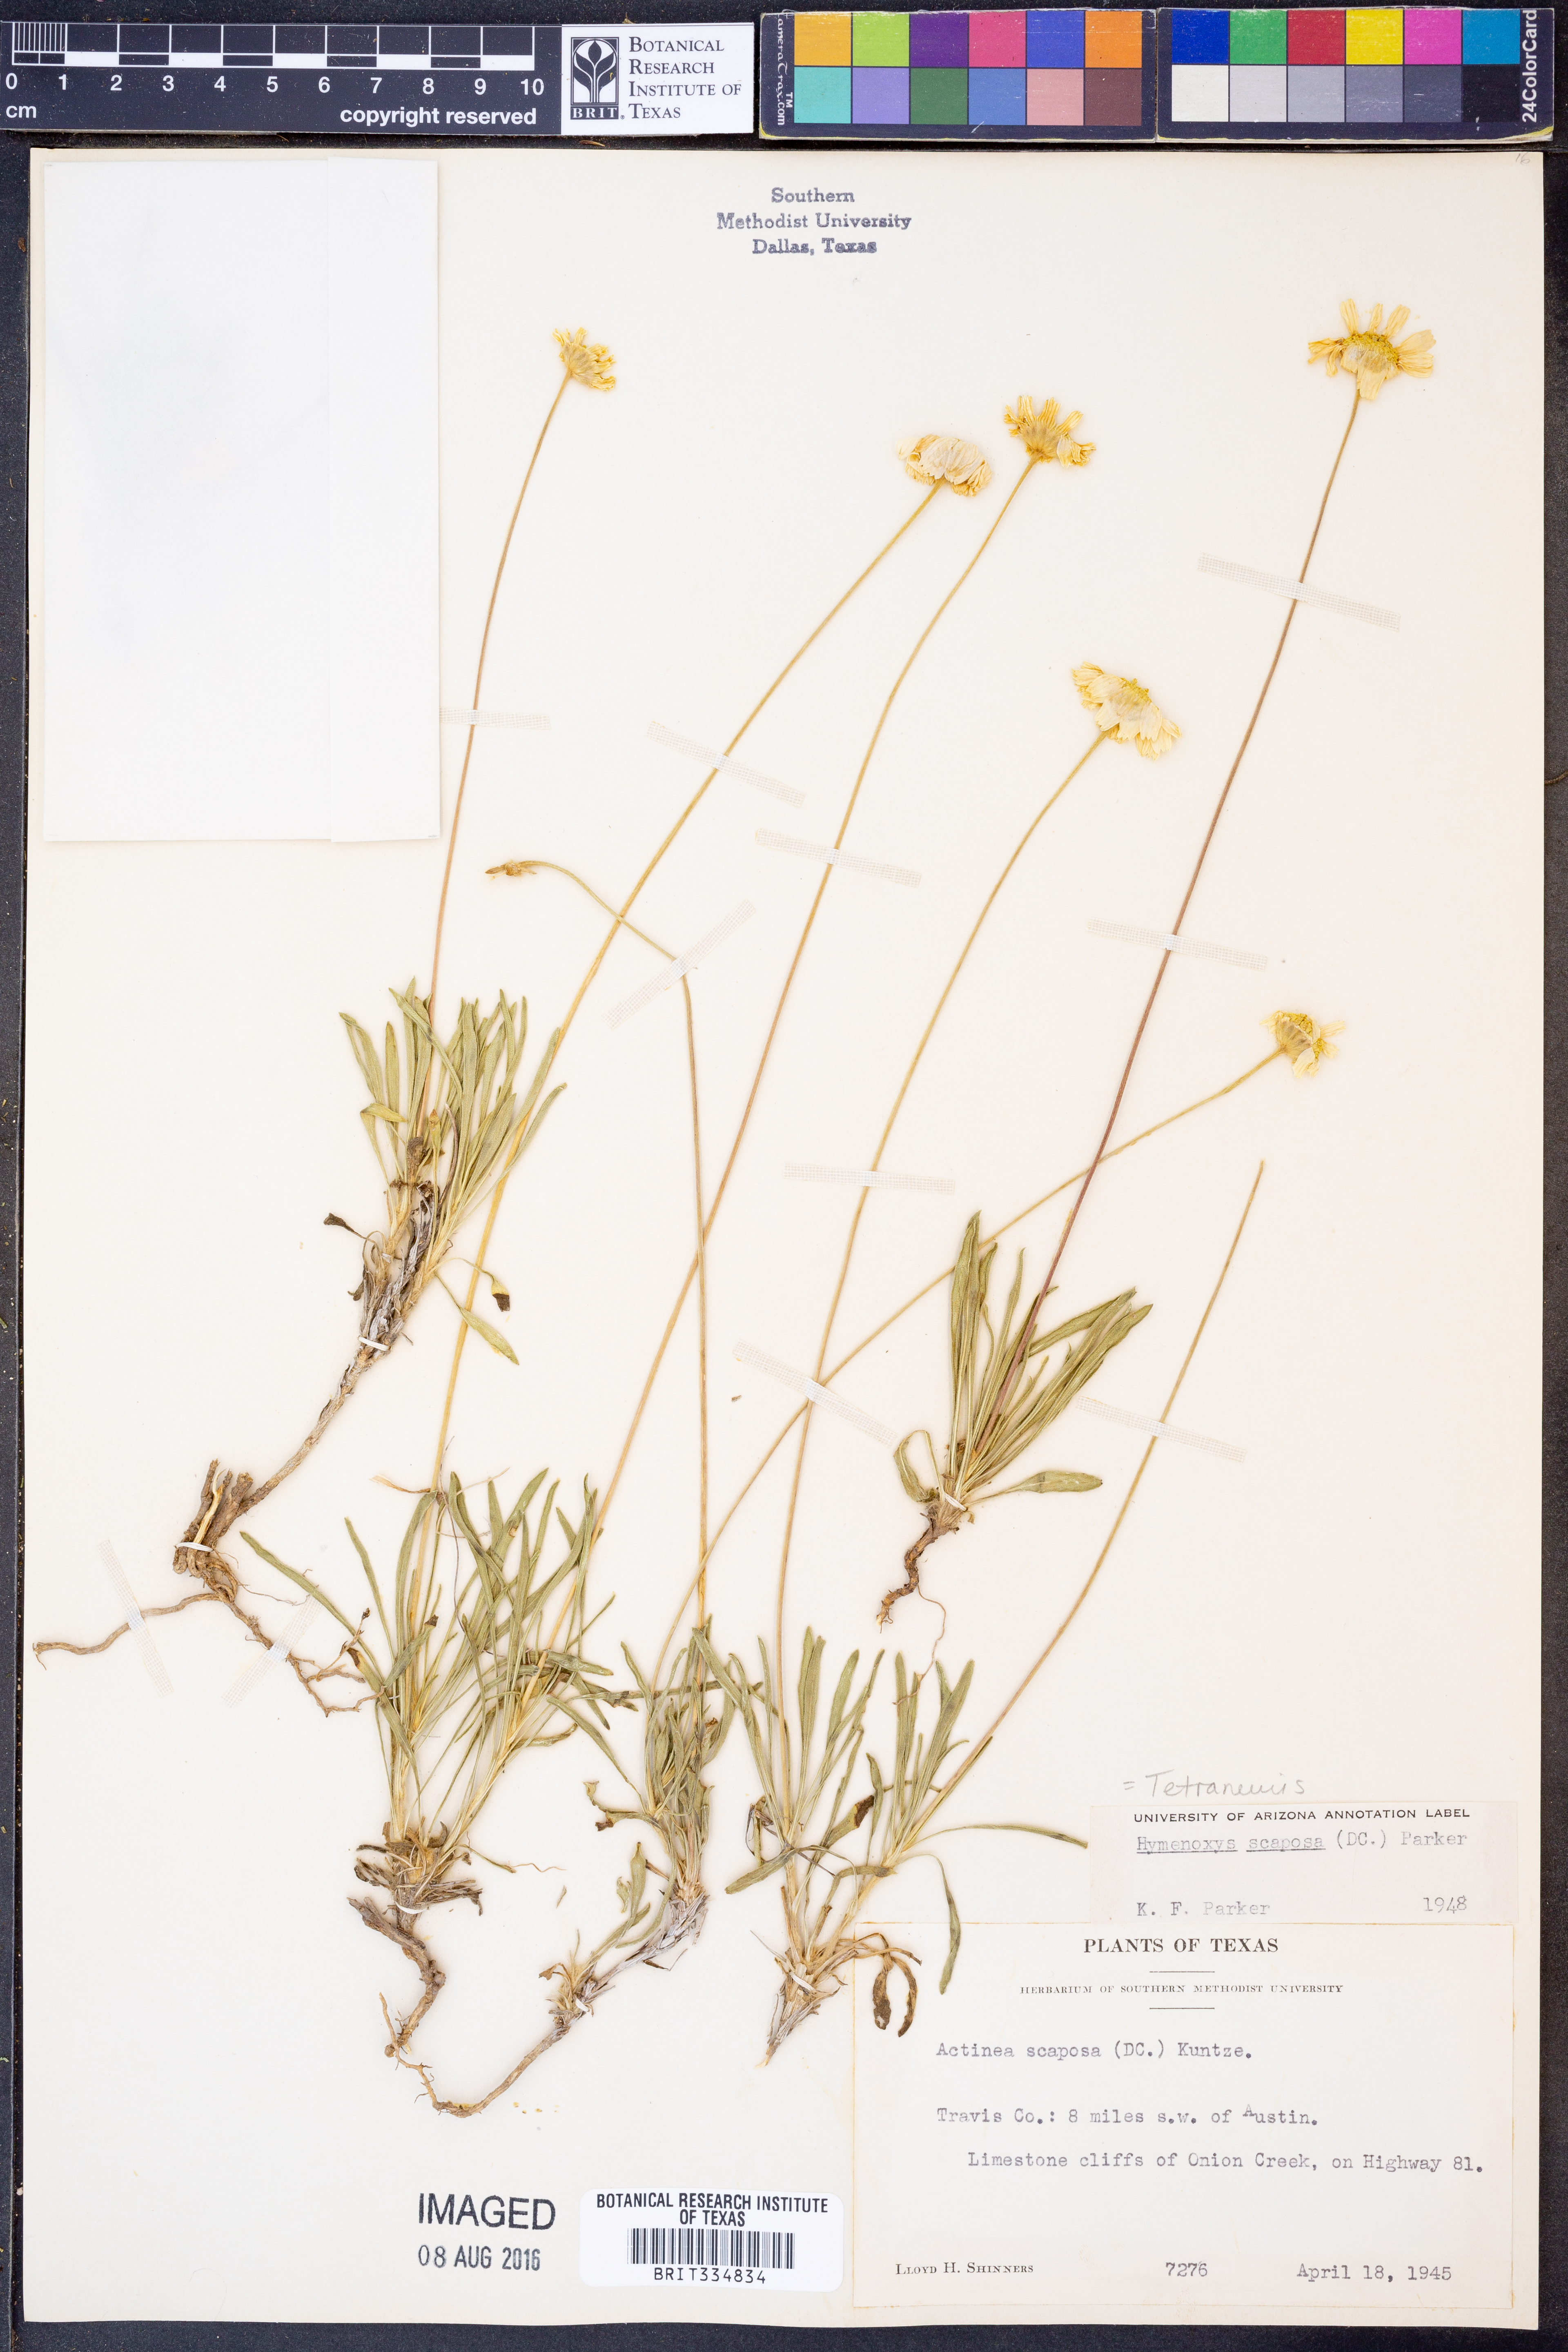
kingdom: Plantae
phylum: Tracheophyta
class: Magnoliopsida
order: Asterales
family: Asteraceae
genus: Tetraneuris
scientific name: Tetraneuris scaposa
